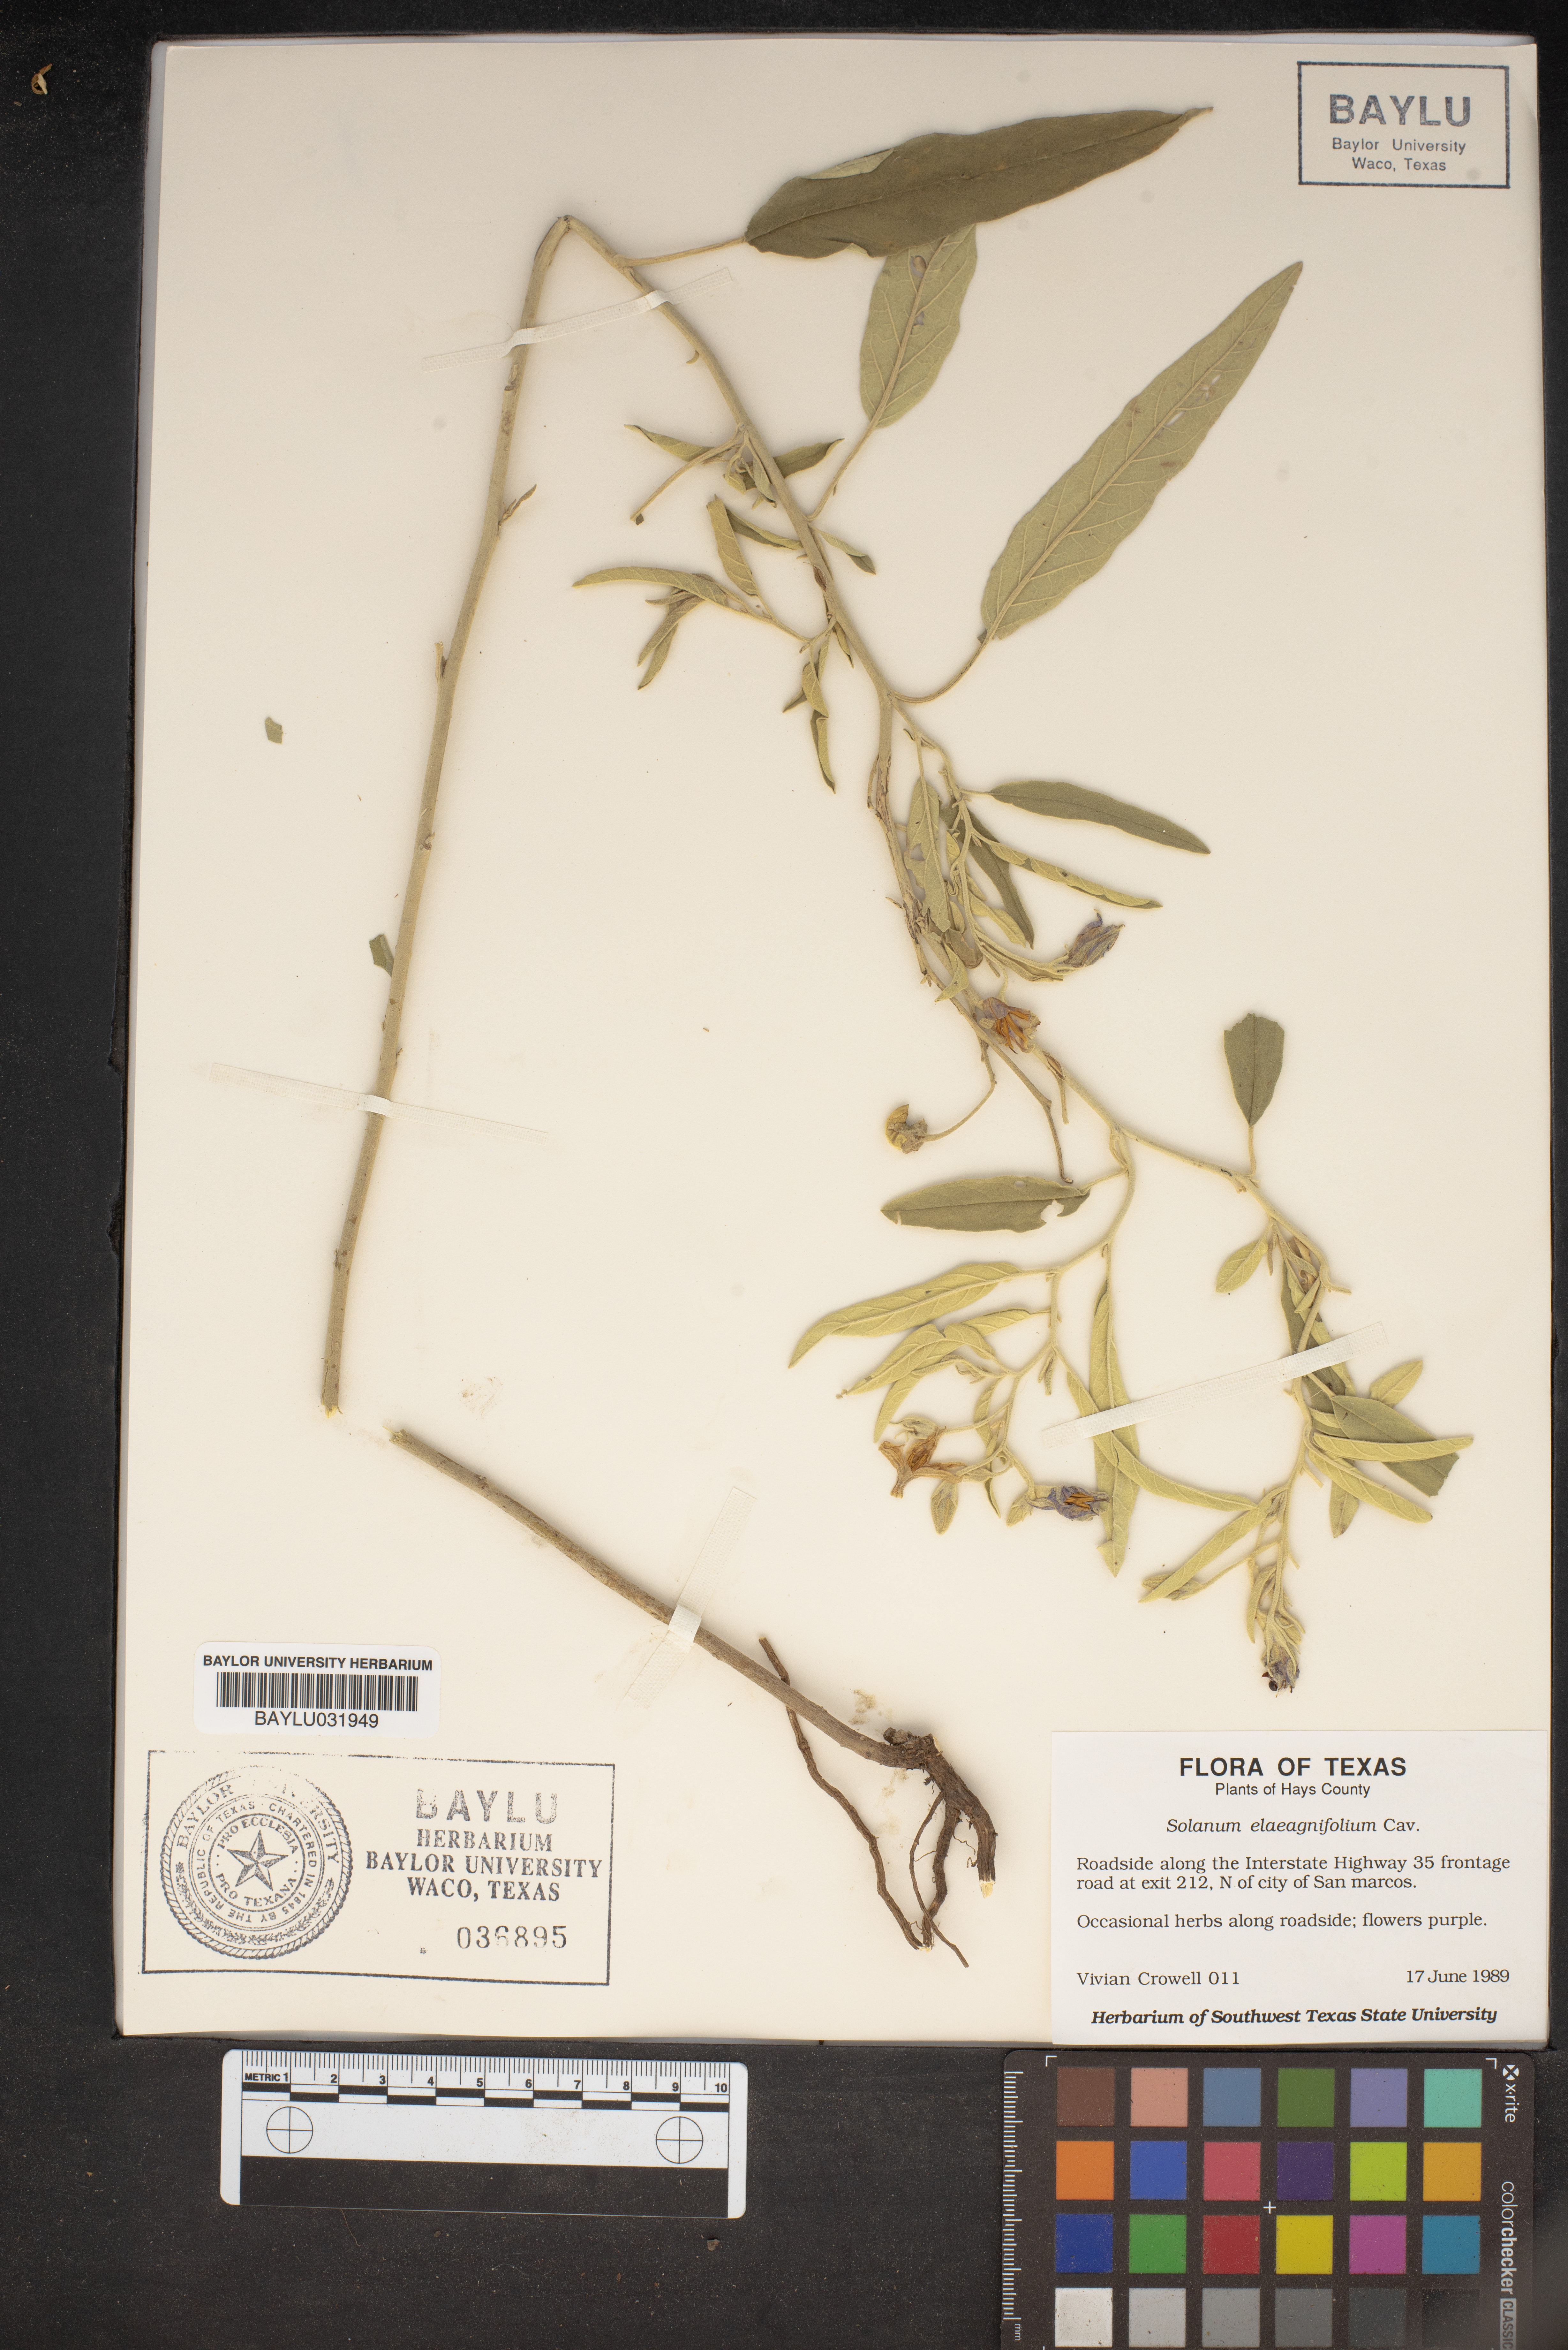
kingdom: Plantae
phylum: Tracheophyta
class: Magnoliopsida
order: Solanales
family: Solanaceae
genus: Solanum
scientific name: Solanum elaeagnifolium
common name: Silverleaf nightshade
